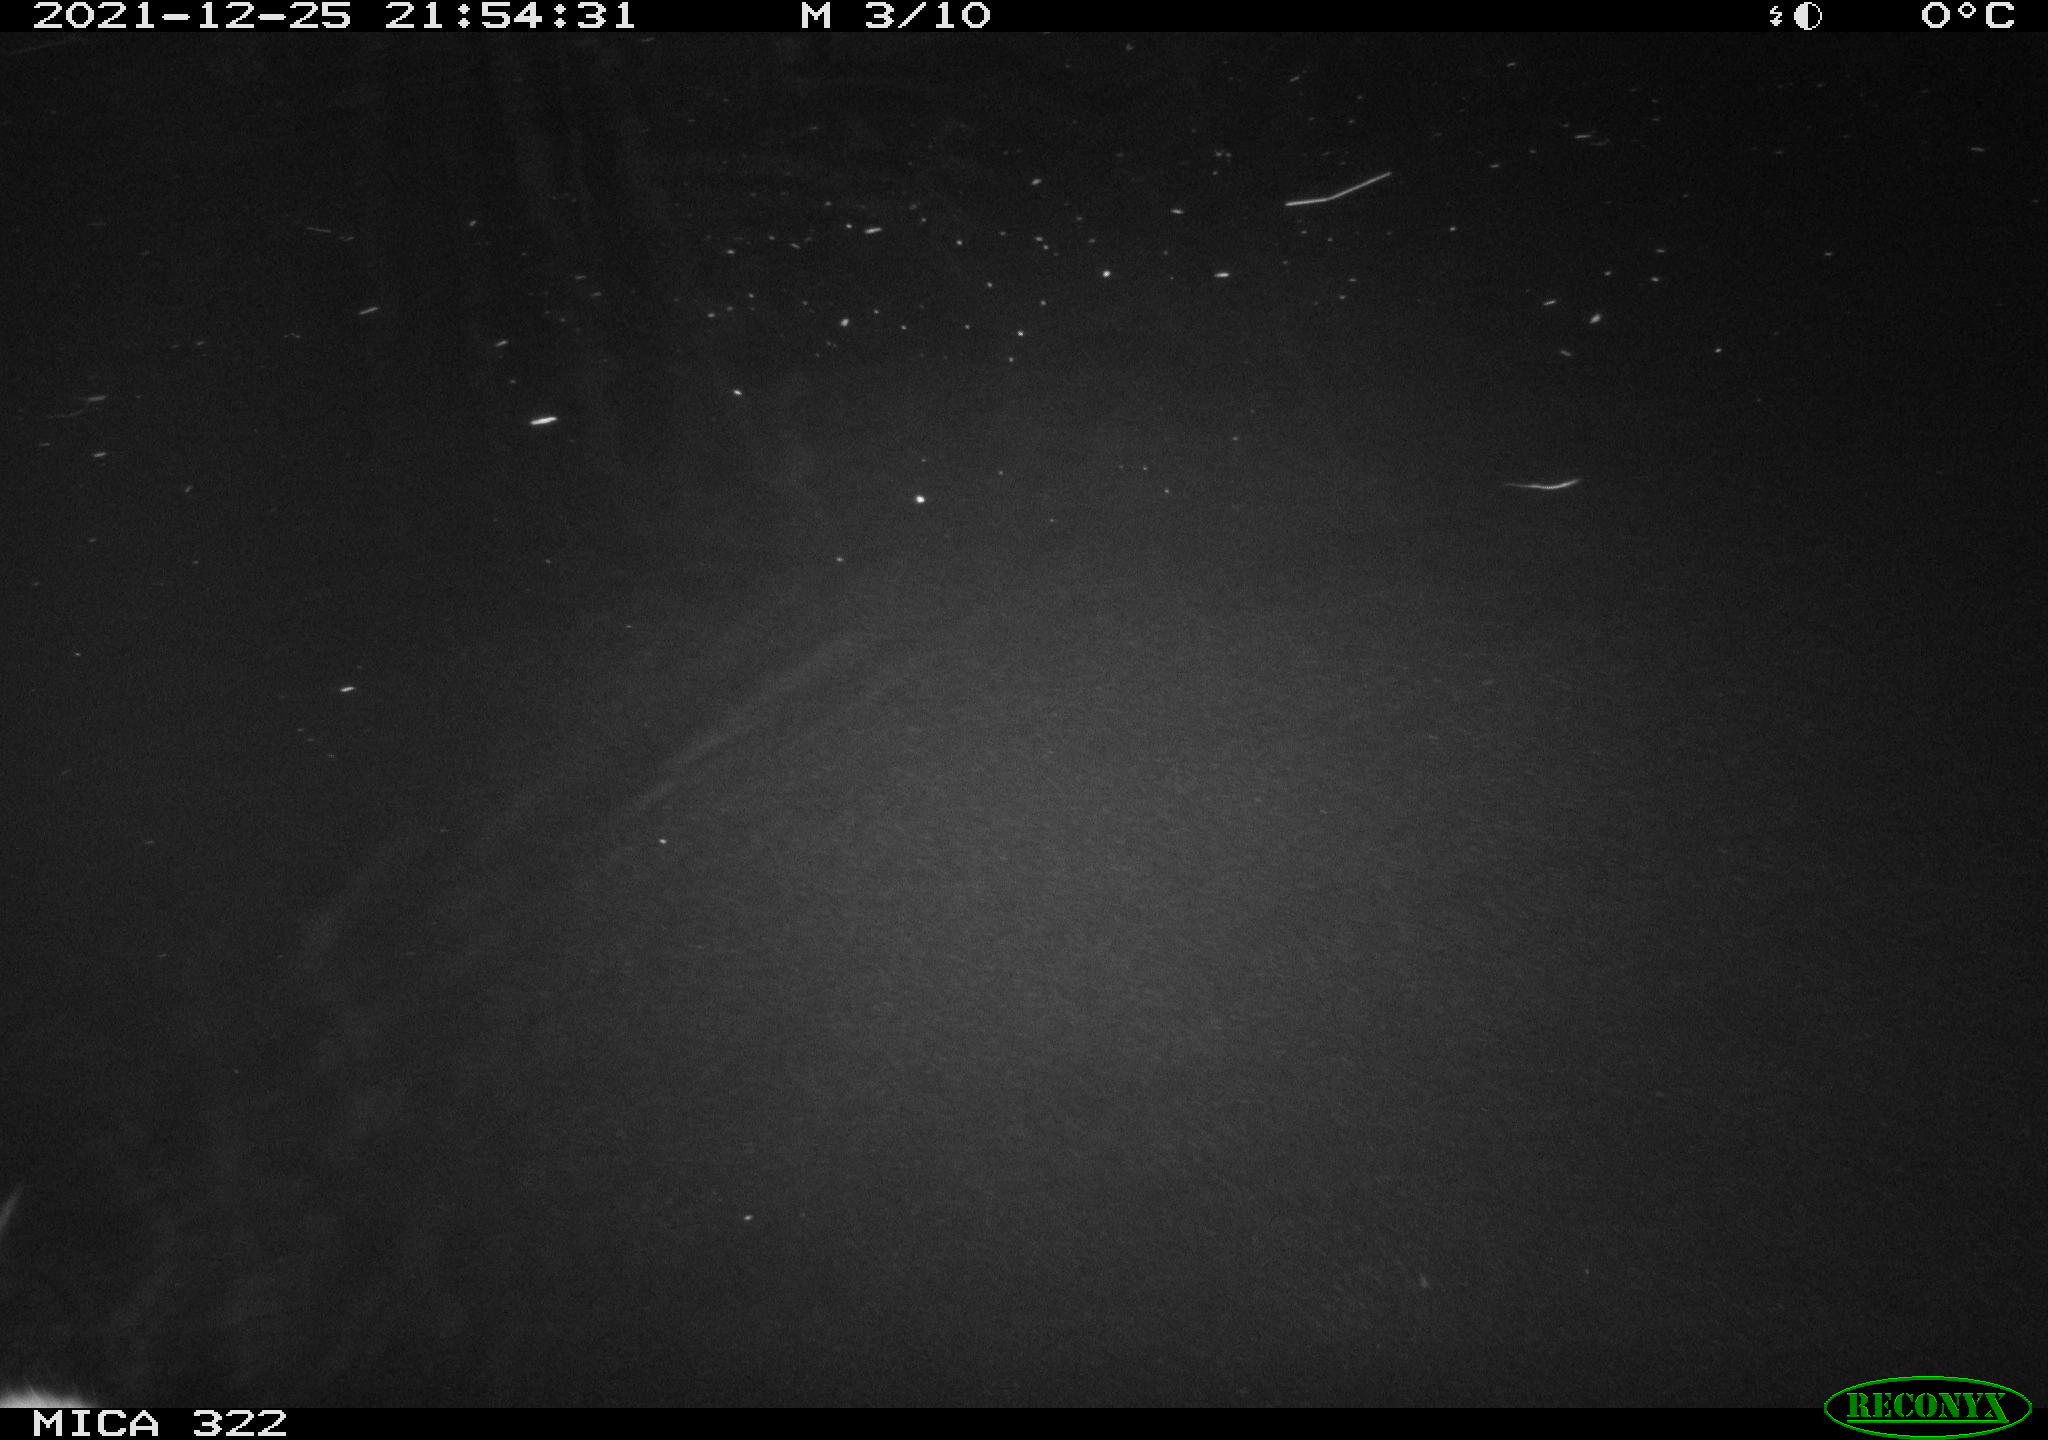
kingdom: Animalia
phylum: Chordata
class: Mammalia
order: Rodentia
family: Muridae
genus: Rattus
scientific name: Rattus norvegicus
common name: Brown rat
